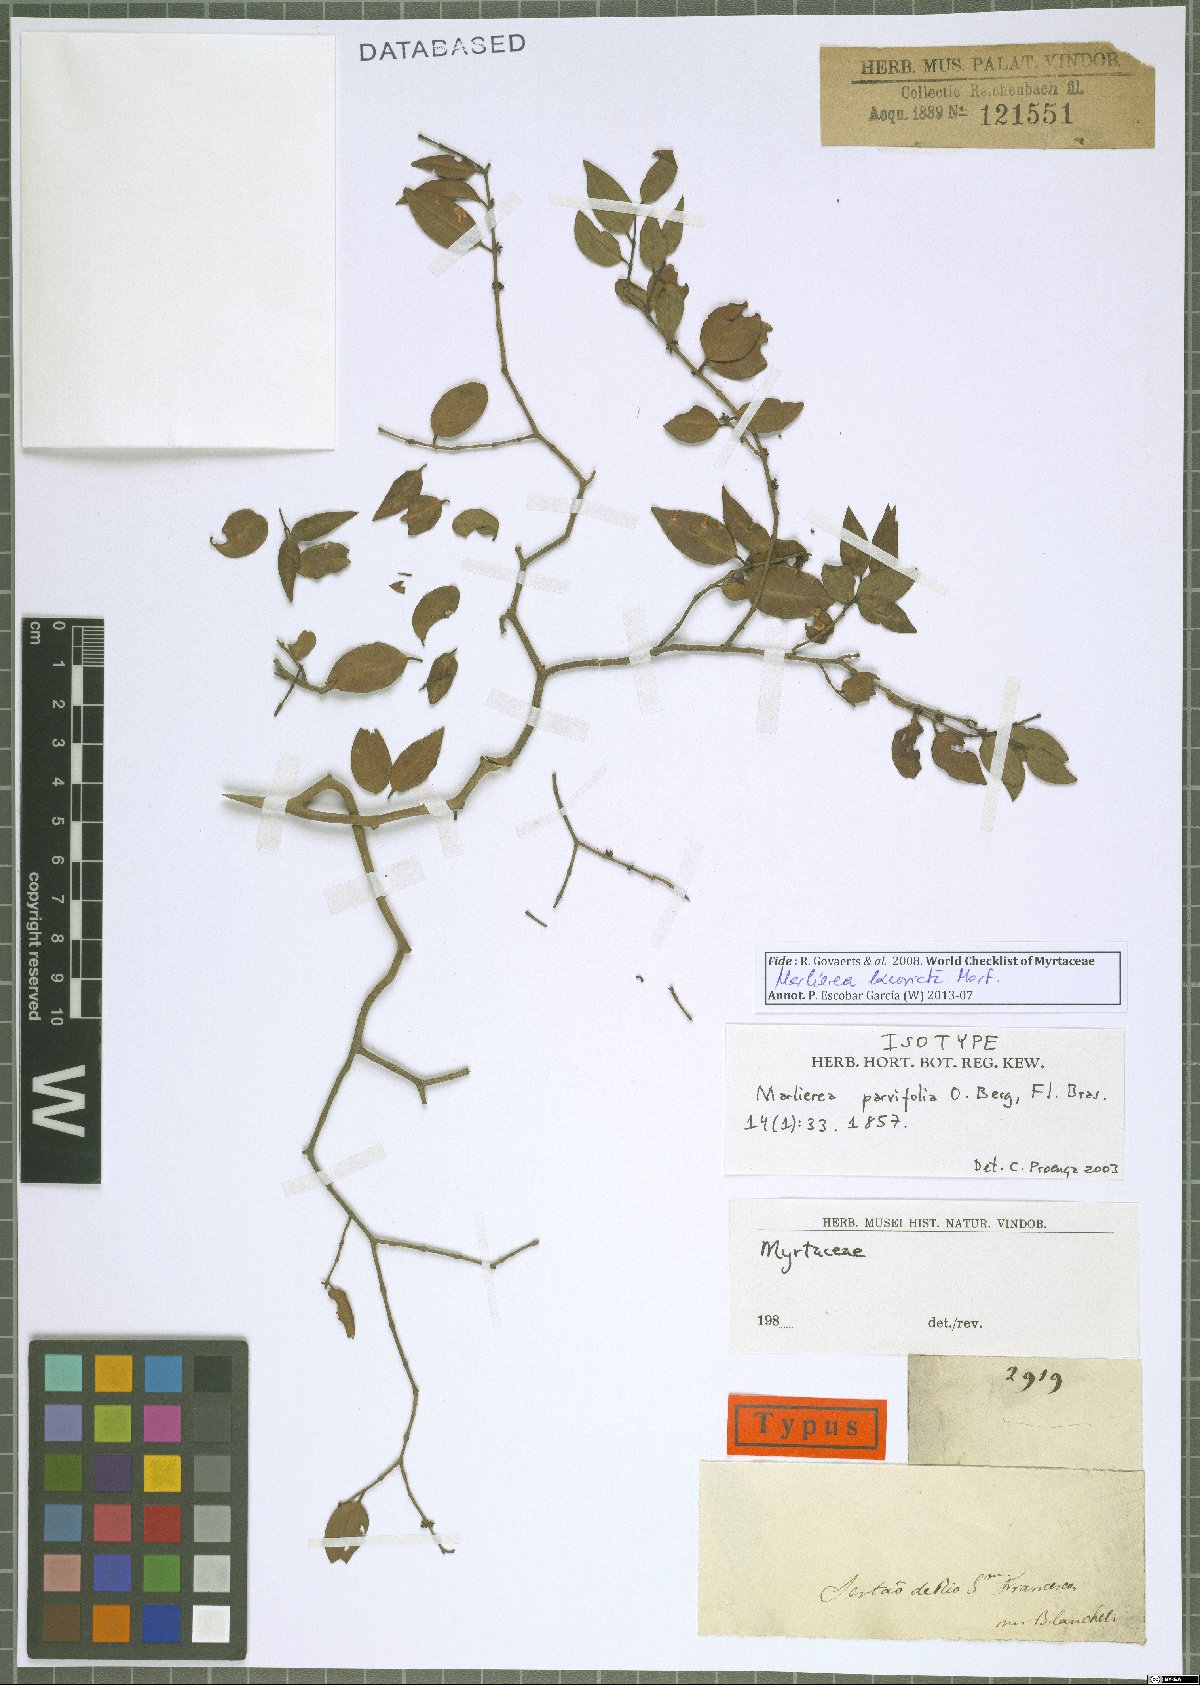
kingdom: Plantae
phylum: Tracheophyta
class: Magnoliopsida
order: Myrtales
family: Myrtaceae
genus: Myrcia
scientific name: Myrcia excoriata
